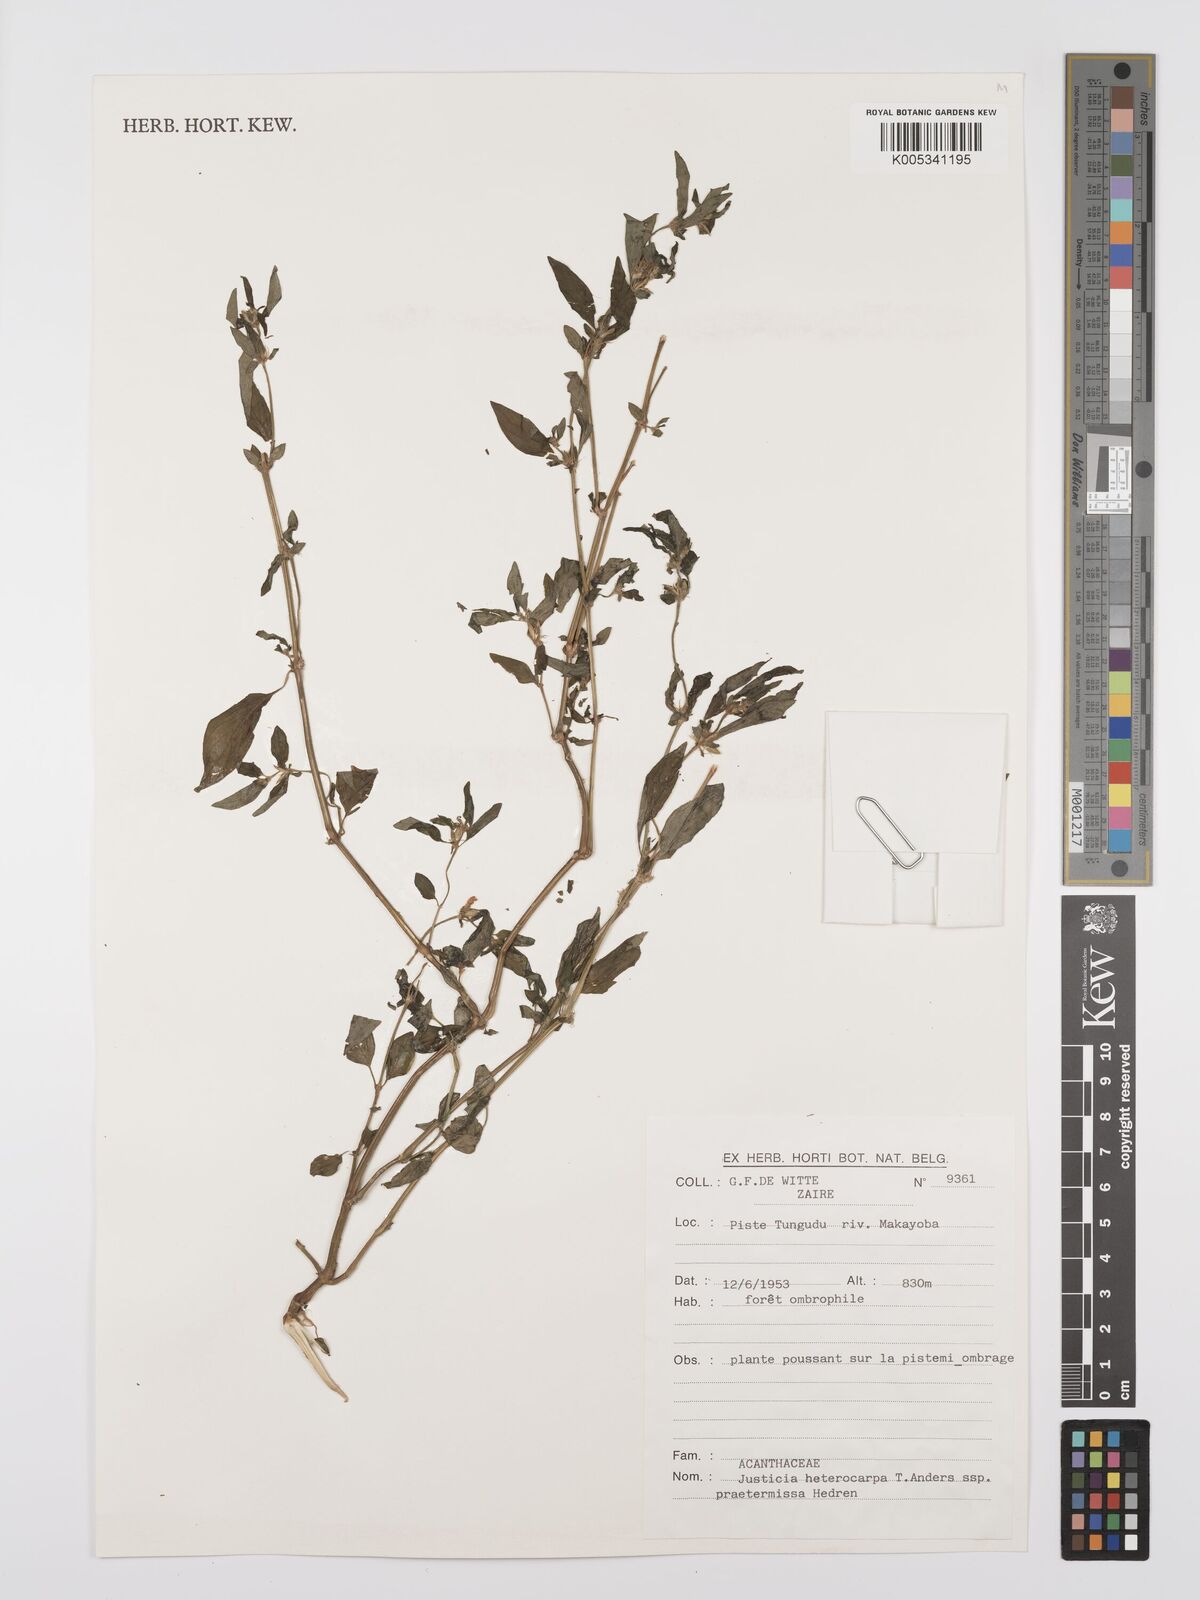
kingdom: Plantae
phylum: Tracheophyta
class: Magnoliopsida
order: Lamiales
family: Acanthaceae
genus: Justicia
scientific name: Justicia heterocarpa
